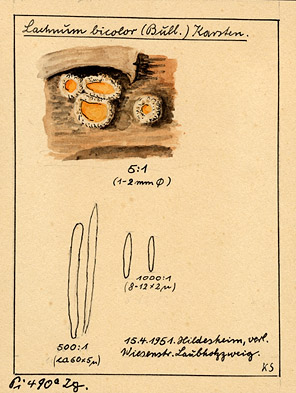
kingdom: Fungi
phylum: Ascomycota
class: Leotiomycetes
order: Helotiales
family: Lachnaceae
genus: Capitotricha
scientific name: Capitotricha bicolor
